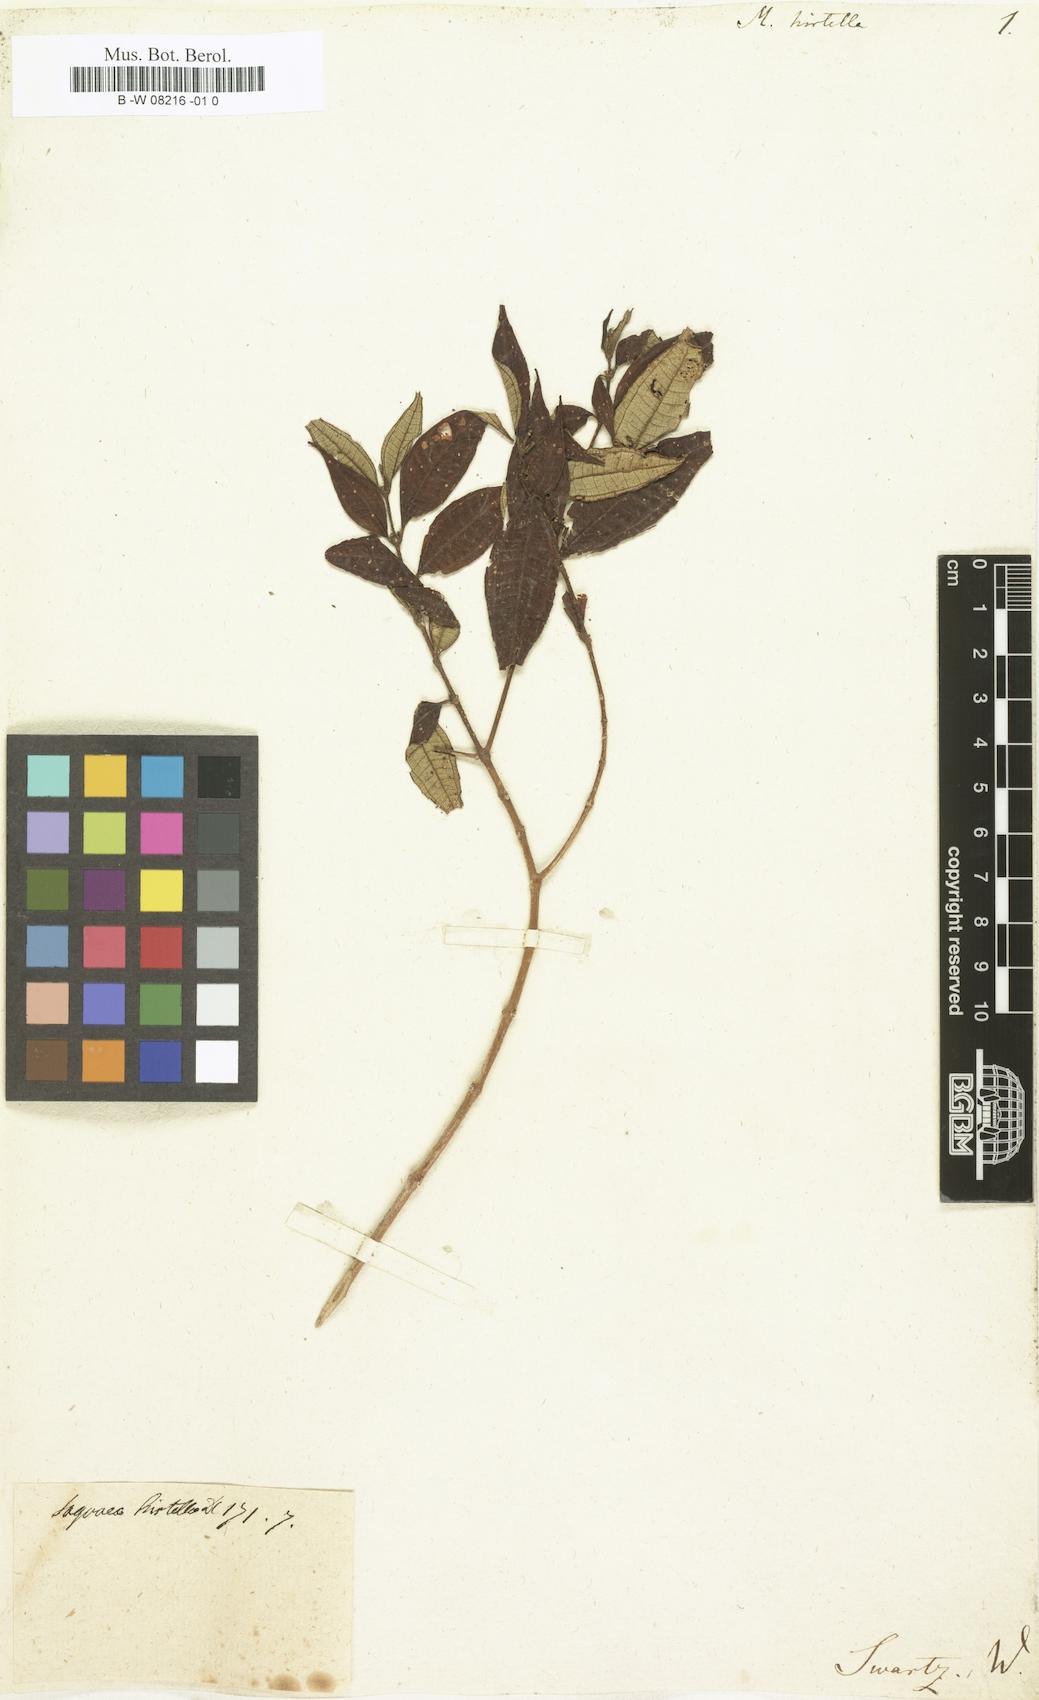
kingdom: Plantae
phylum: Tracheophyta
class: Magnoliopsida
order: Myrtales
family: Melastomataceae
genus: Miconia
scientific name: Miconia hirtellicaulis
